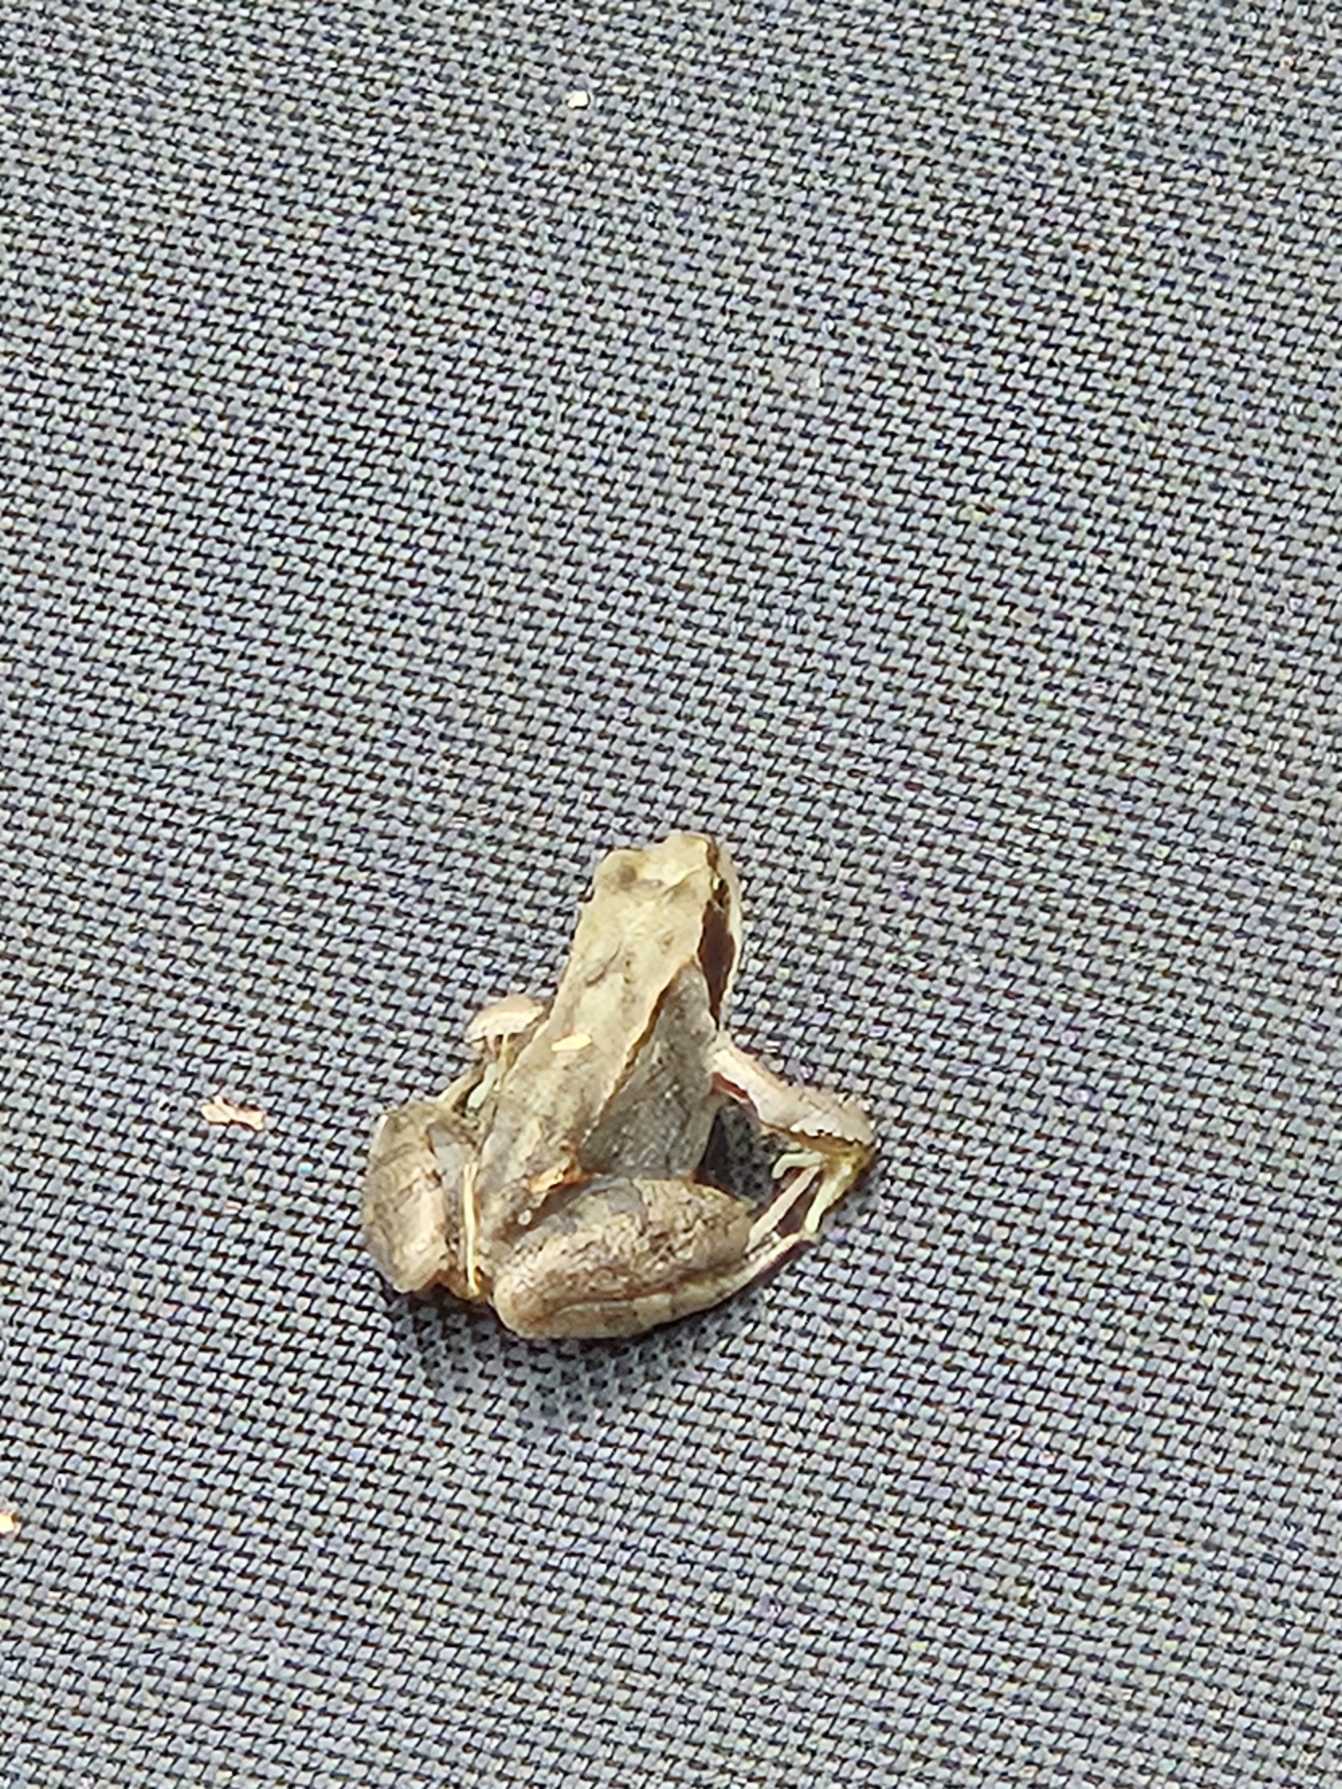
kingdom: Animalia
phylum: Chordata
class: Amphibia
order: Anura
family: Ranidae
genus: Rana
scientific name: Rana temporaria
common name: Butsnudet frø
